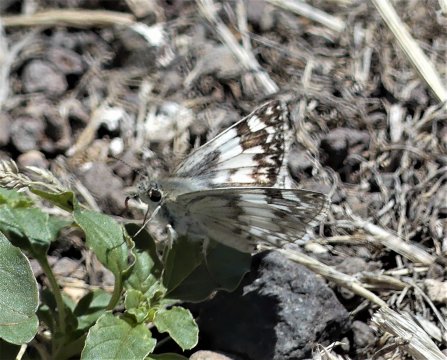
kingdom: Animalia
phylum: Arthropoda
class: Insecta
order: Lepidoptera
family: Hesperiidae
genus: Heliopetes
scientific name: Heliopetes ericetorum
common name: Northern White-Skipper
